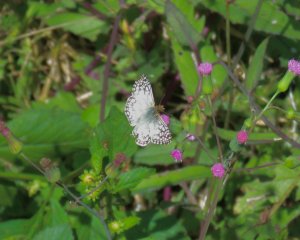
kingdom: Animalia
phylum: Arthropoda
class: Insecta
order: Lepidoptera
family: Hesperiidae
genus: Pyrgus
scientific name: Pyrgus oileus
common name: Tropical Checkered-Skipper
